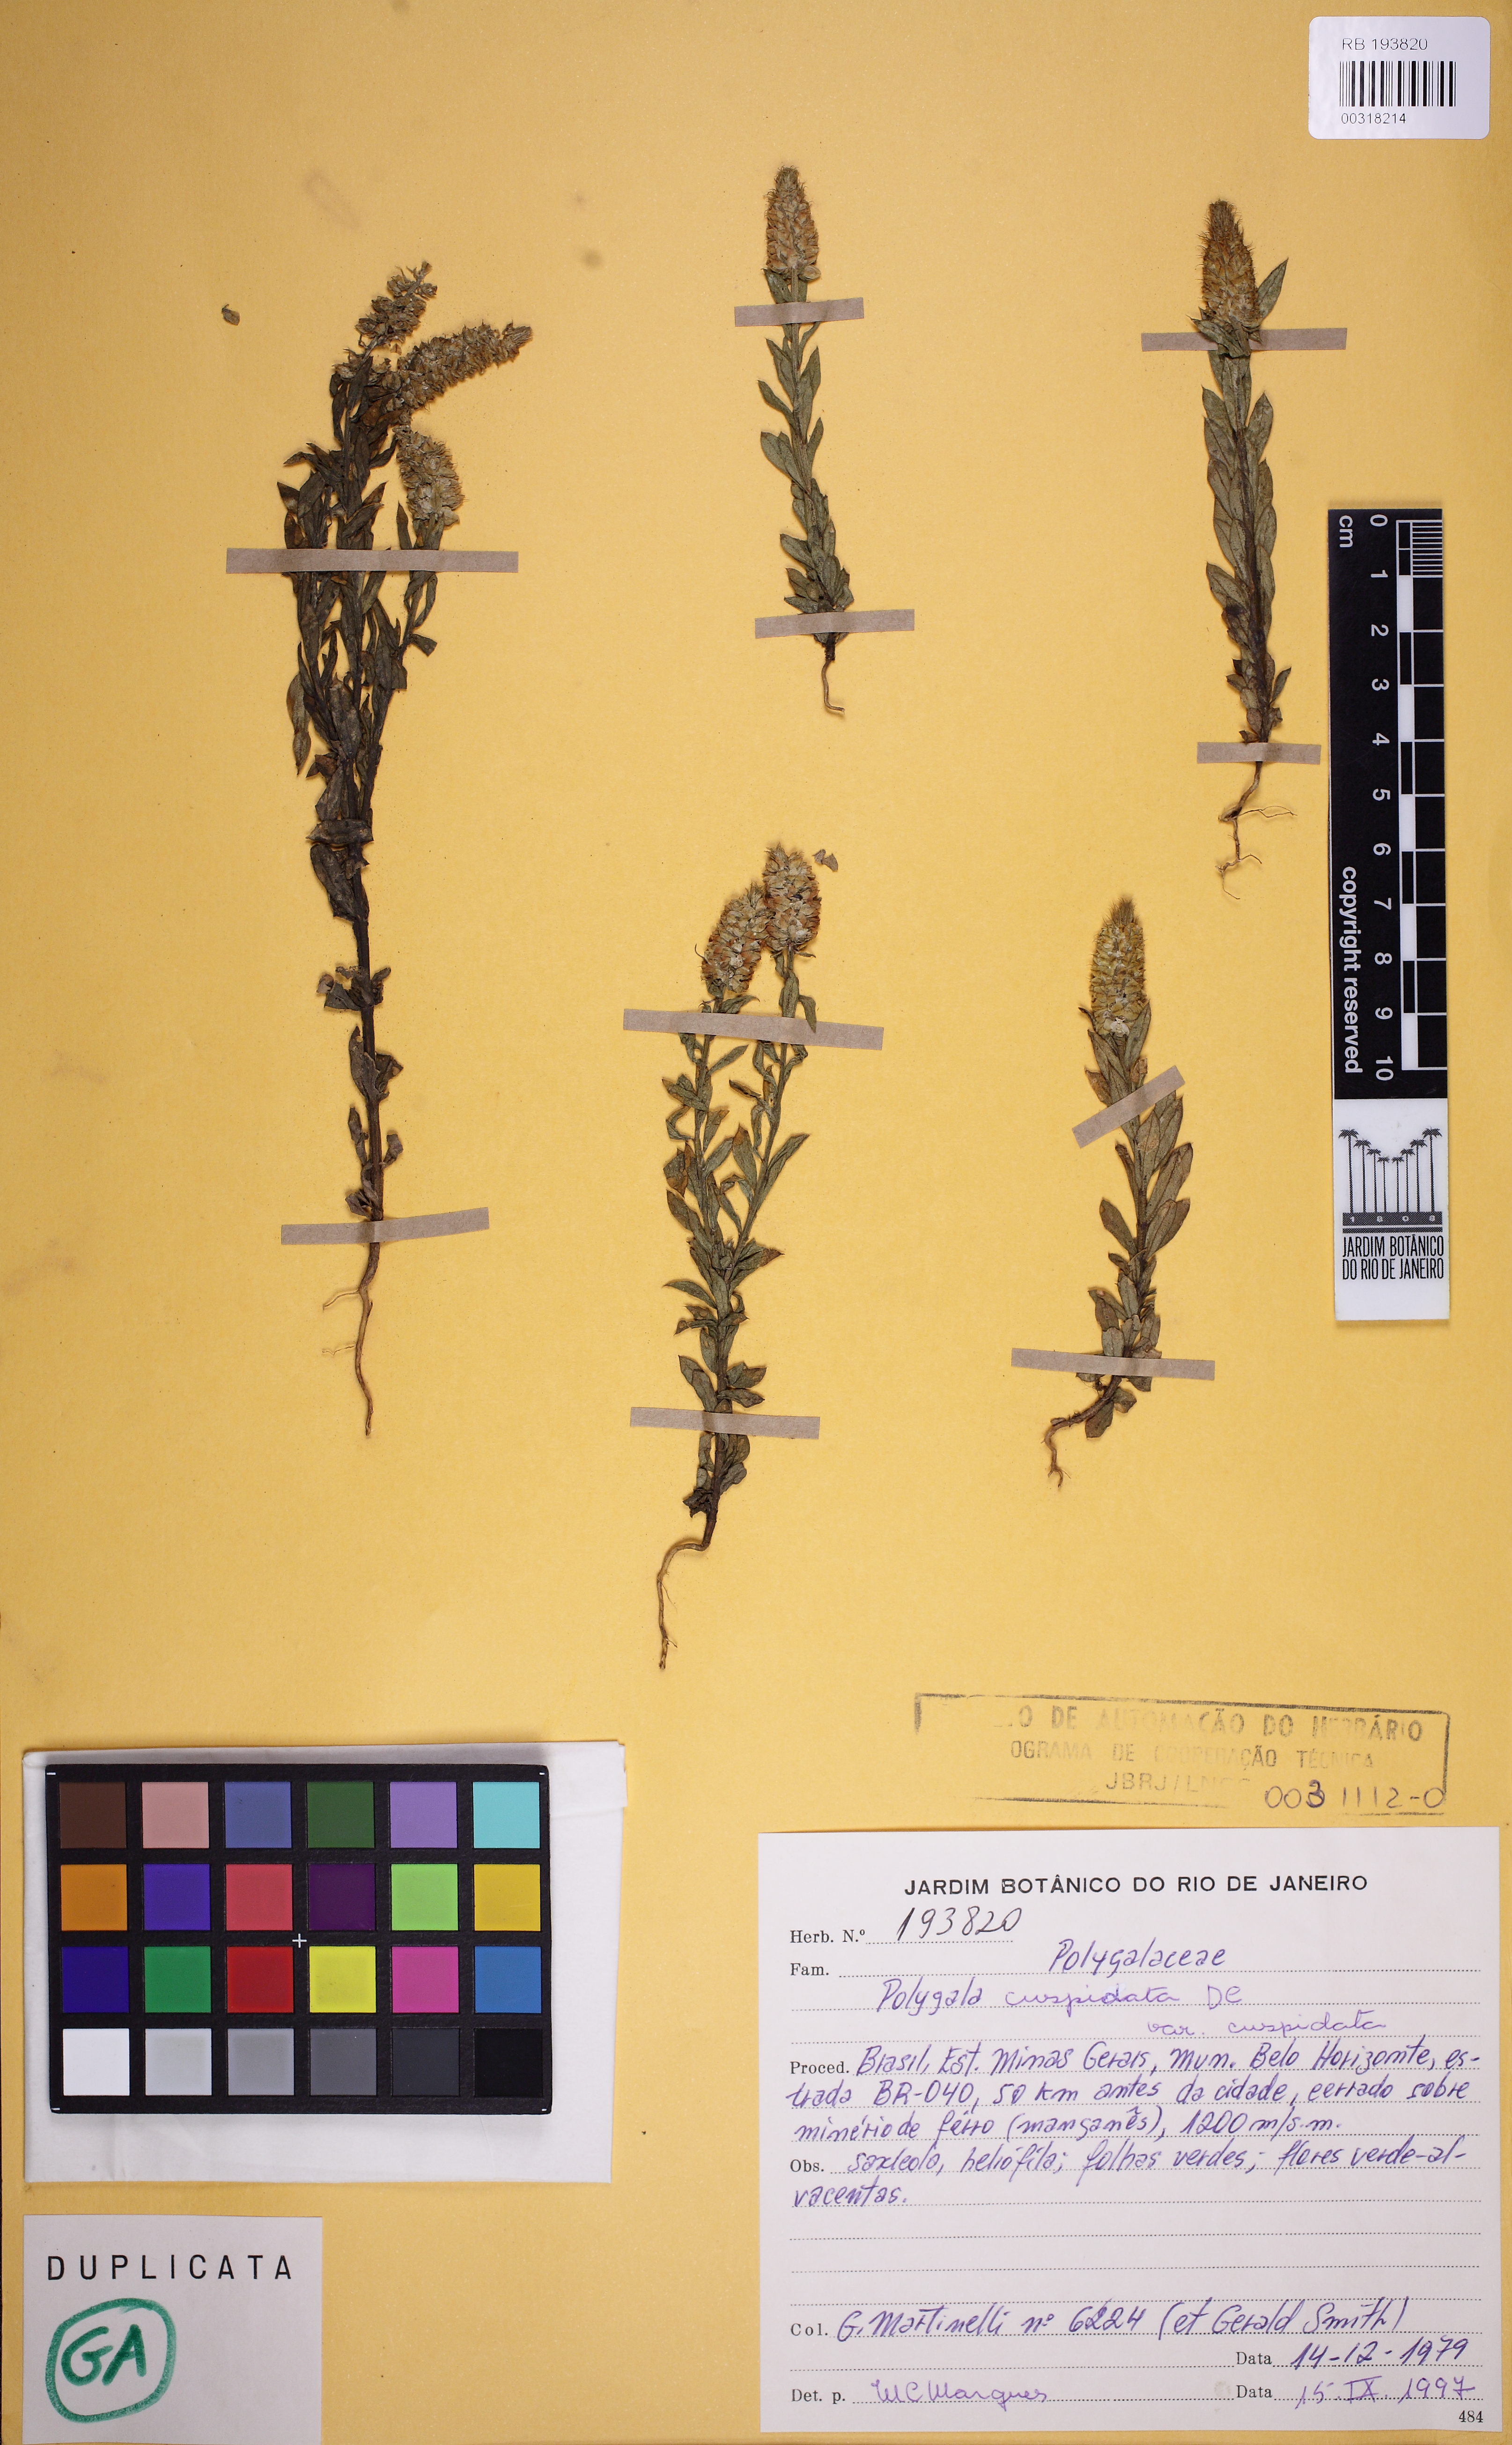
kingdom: Plantae
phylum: Tracheophyta
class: Magnoliopsida
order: Fabales
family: Polygalaceae
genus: Polygala
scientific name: Polygala cuspidata
